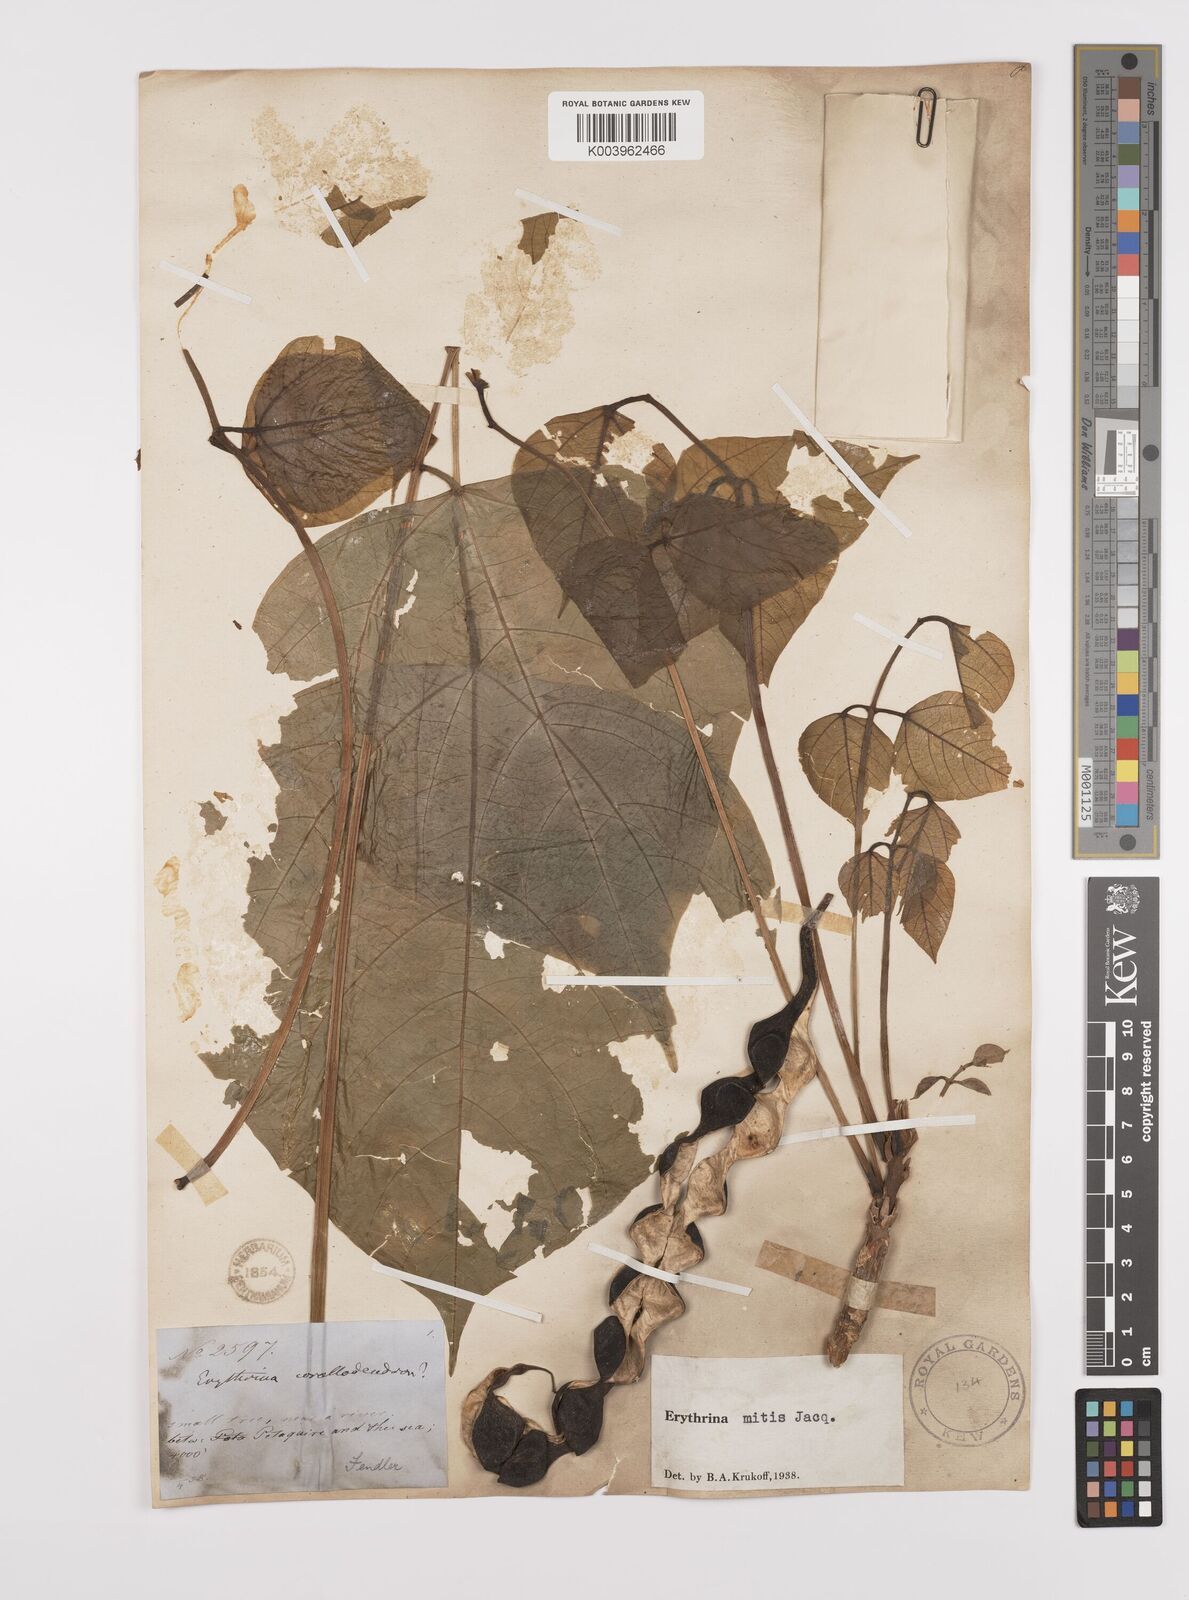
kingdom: Plantae
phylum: Tracheophyta
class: Magnoliopsida
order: Fabales
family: Fabaceae
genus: Erythrina
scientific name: Erythrina mitis
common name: Mortel
